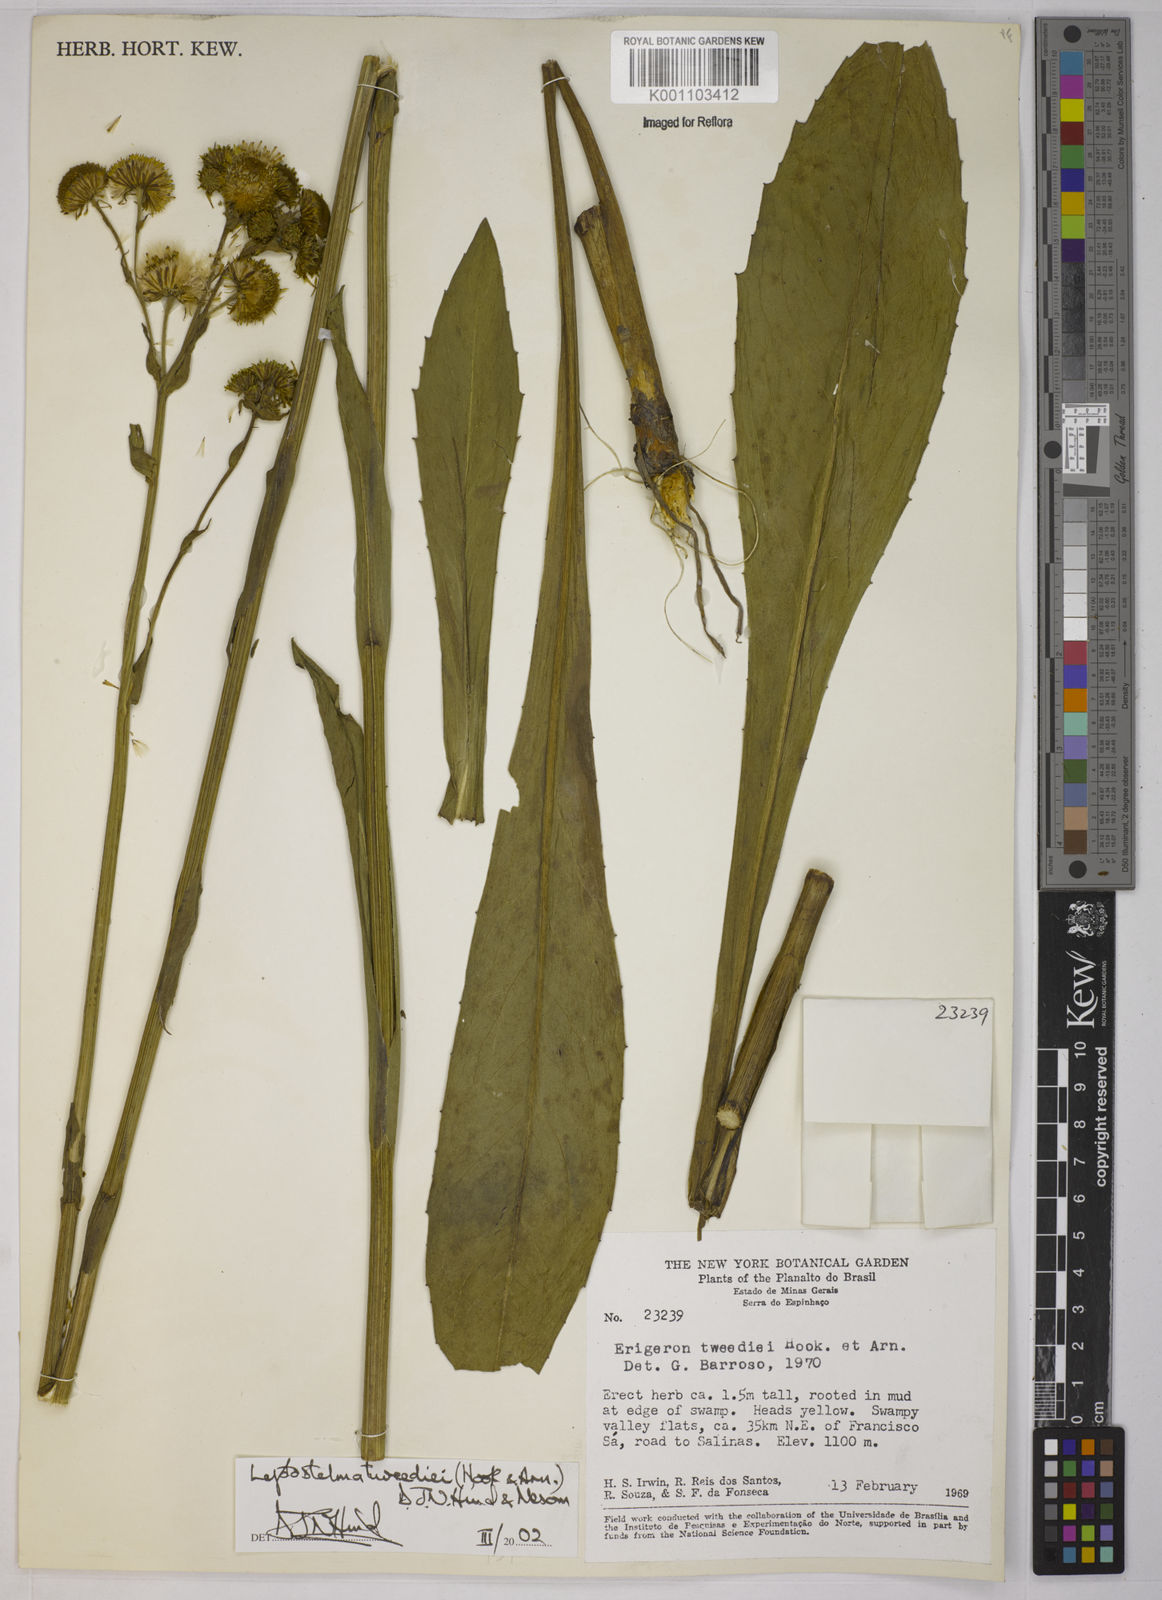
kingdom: Plantae
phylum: Tracheophyta
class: Magnoliopsida
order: Asterales
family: Asteraceae
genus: Leptostelma
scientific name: Leptostelma tweediei
